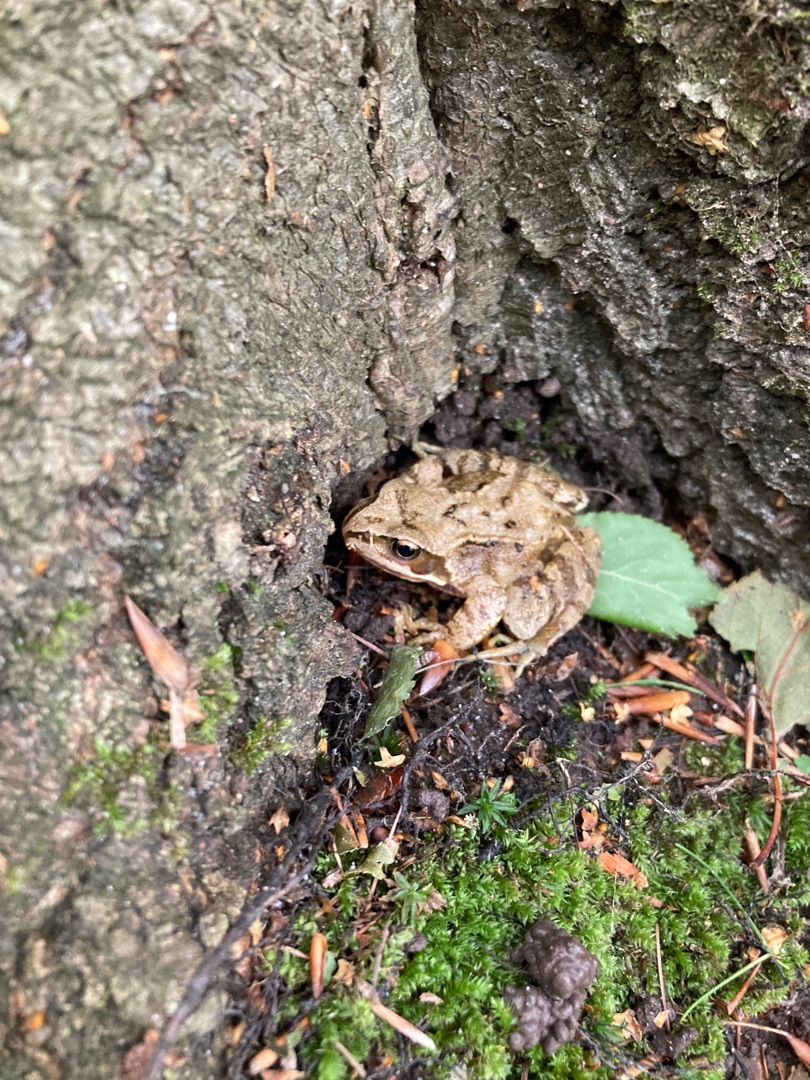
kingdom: Animalia
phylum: Chordata
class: Amphibia
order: Anura
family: Ranidae
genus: Rana
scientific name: Rana temporaria
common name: Butsnudet frø
